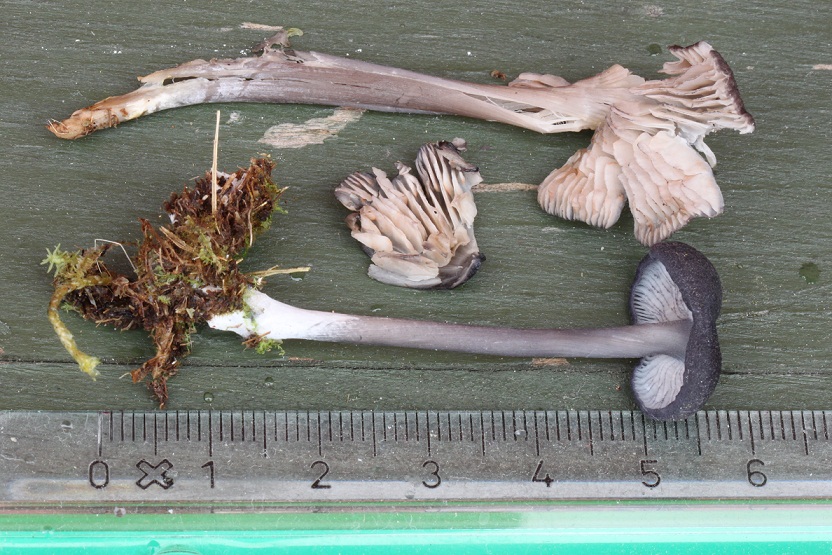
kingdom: Fungi
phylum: Basidiomycota
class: Agaricomycetes
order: Agaricales
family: Entolomataceae
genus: Entoloma
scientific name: Entoloma
